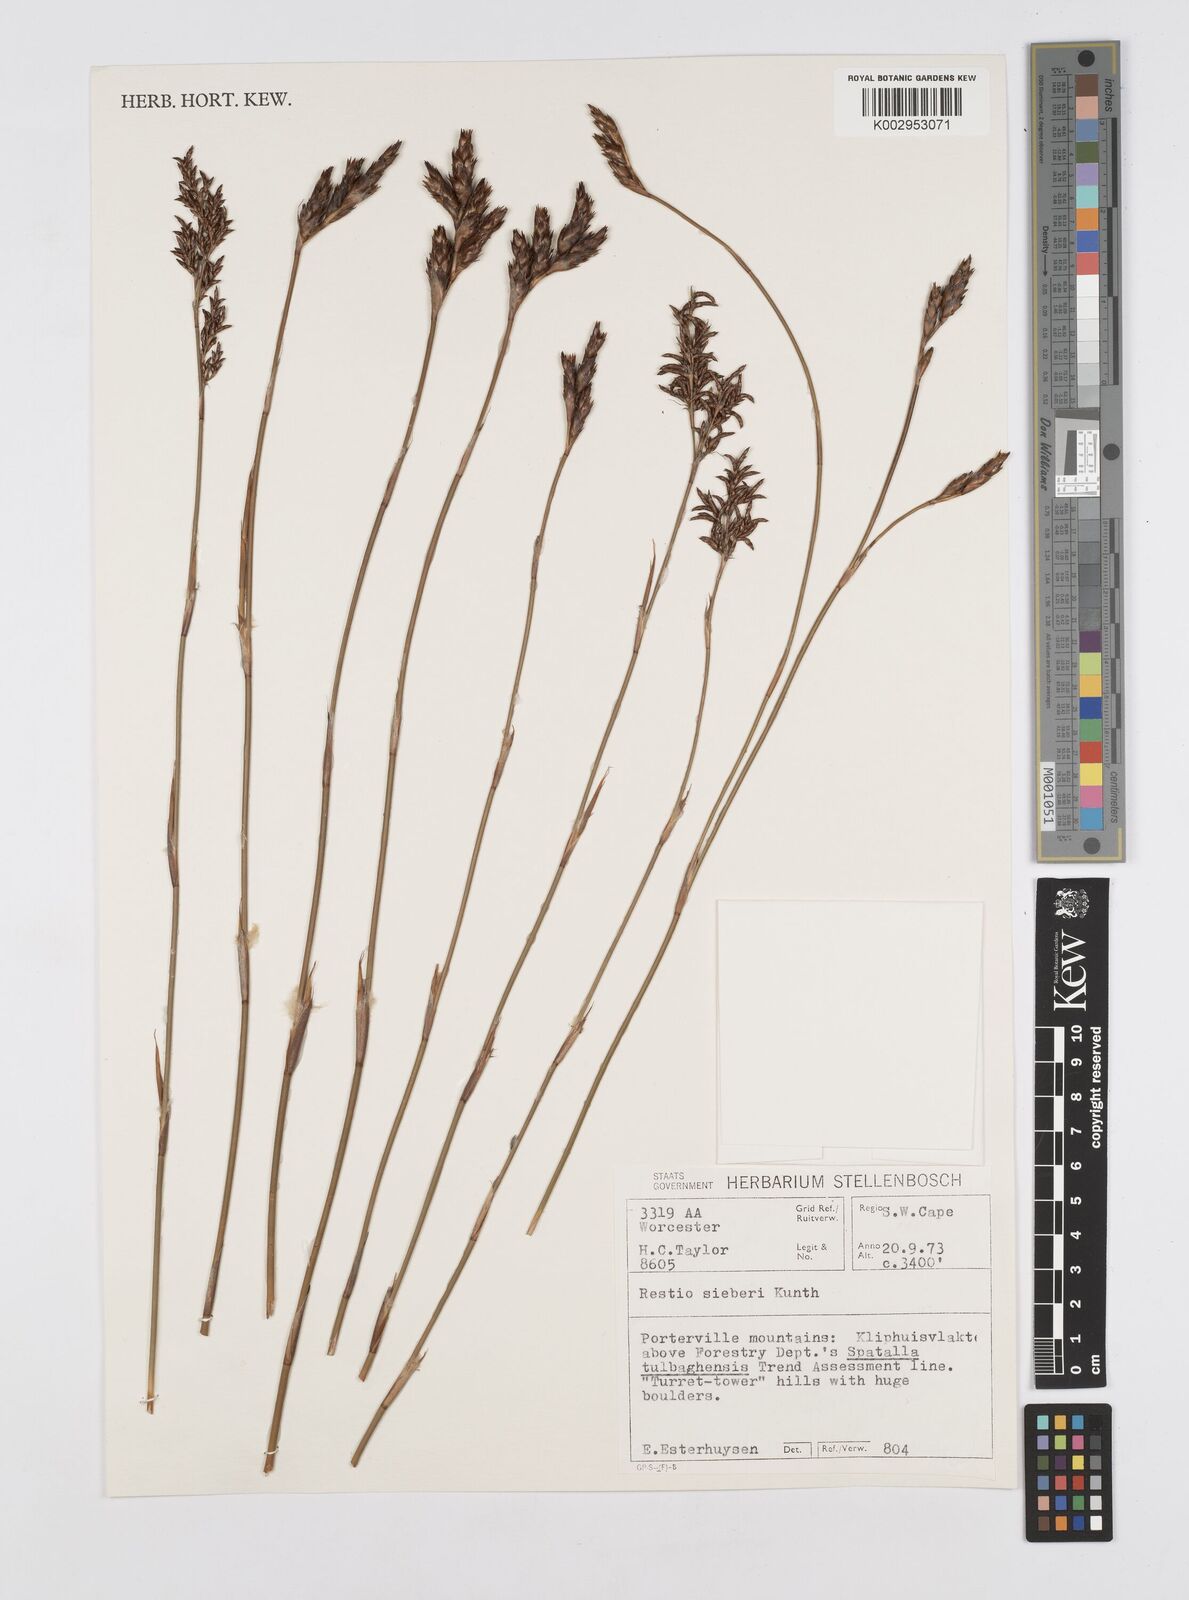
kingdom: Plantae
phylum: Tracheophyta
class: Liliopsida
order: Poales
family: Restionaceae
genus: Restio
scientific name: Restio sieberi
